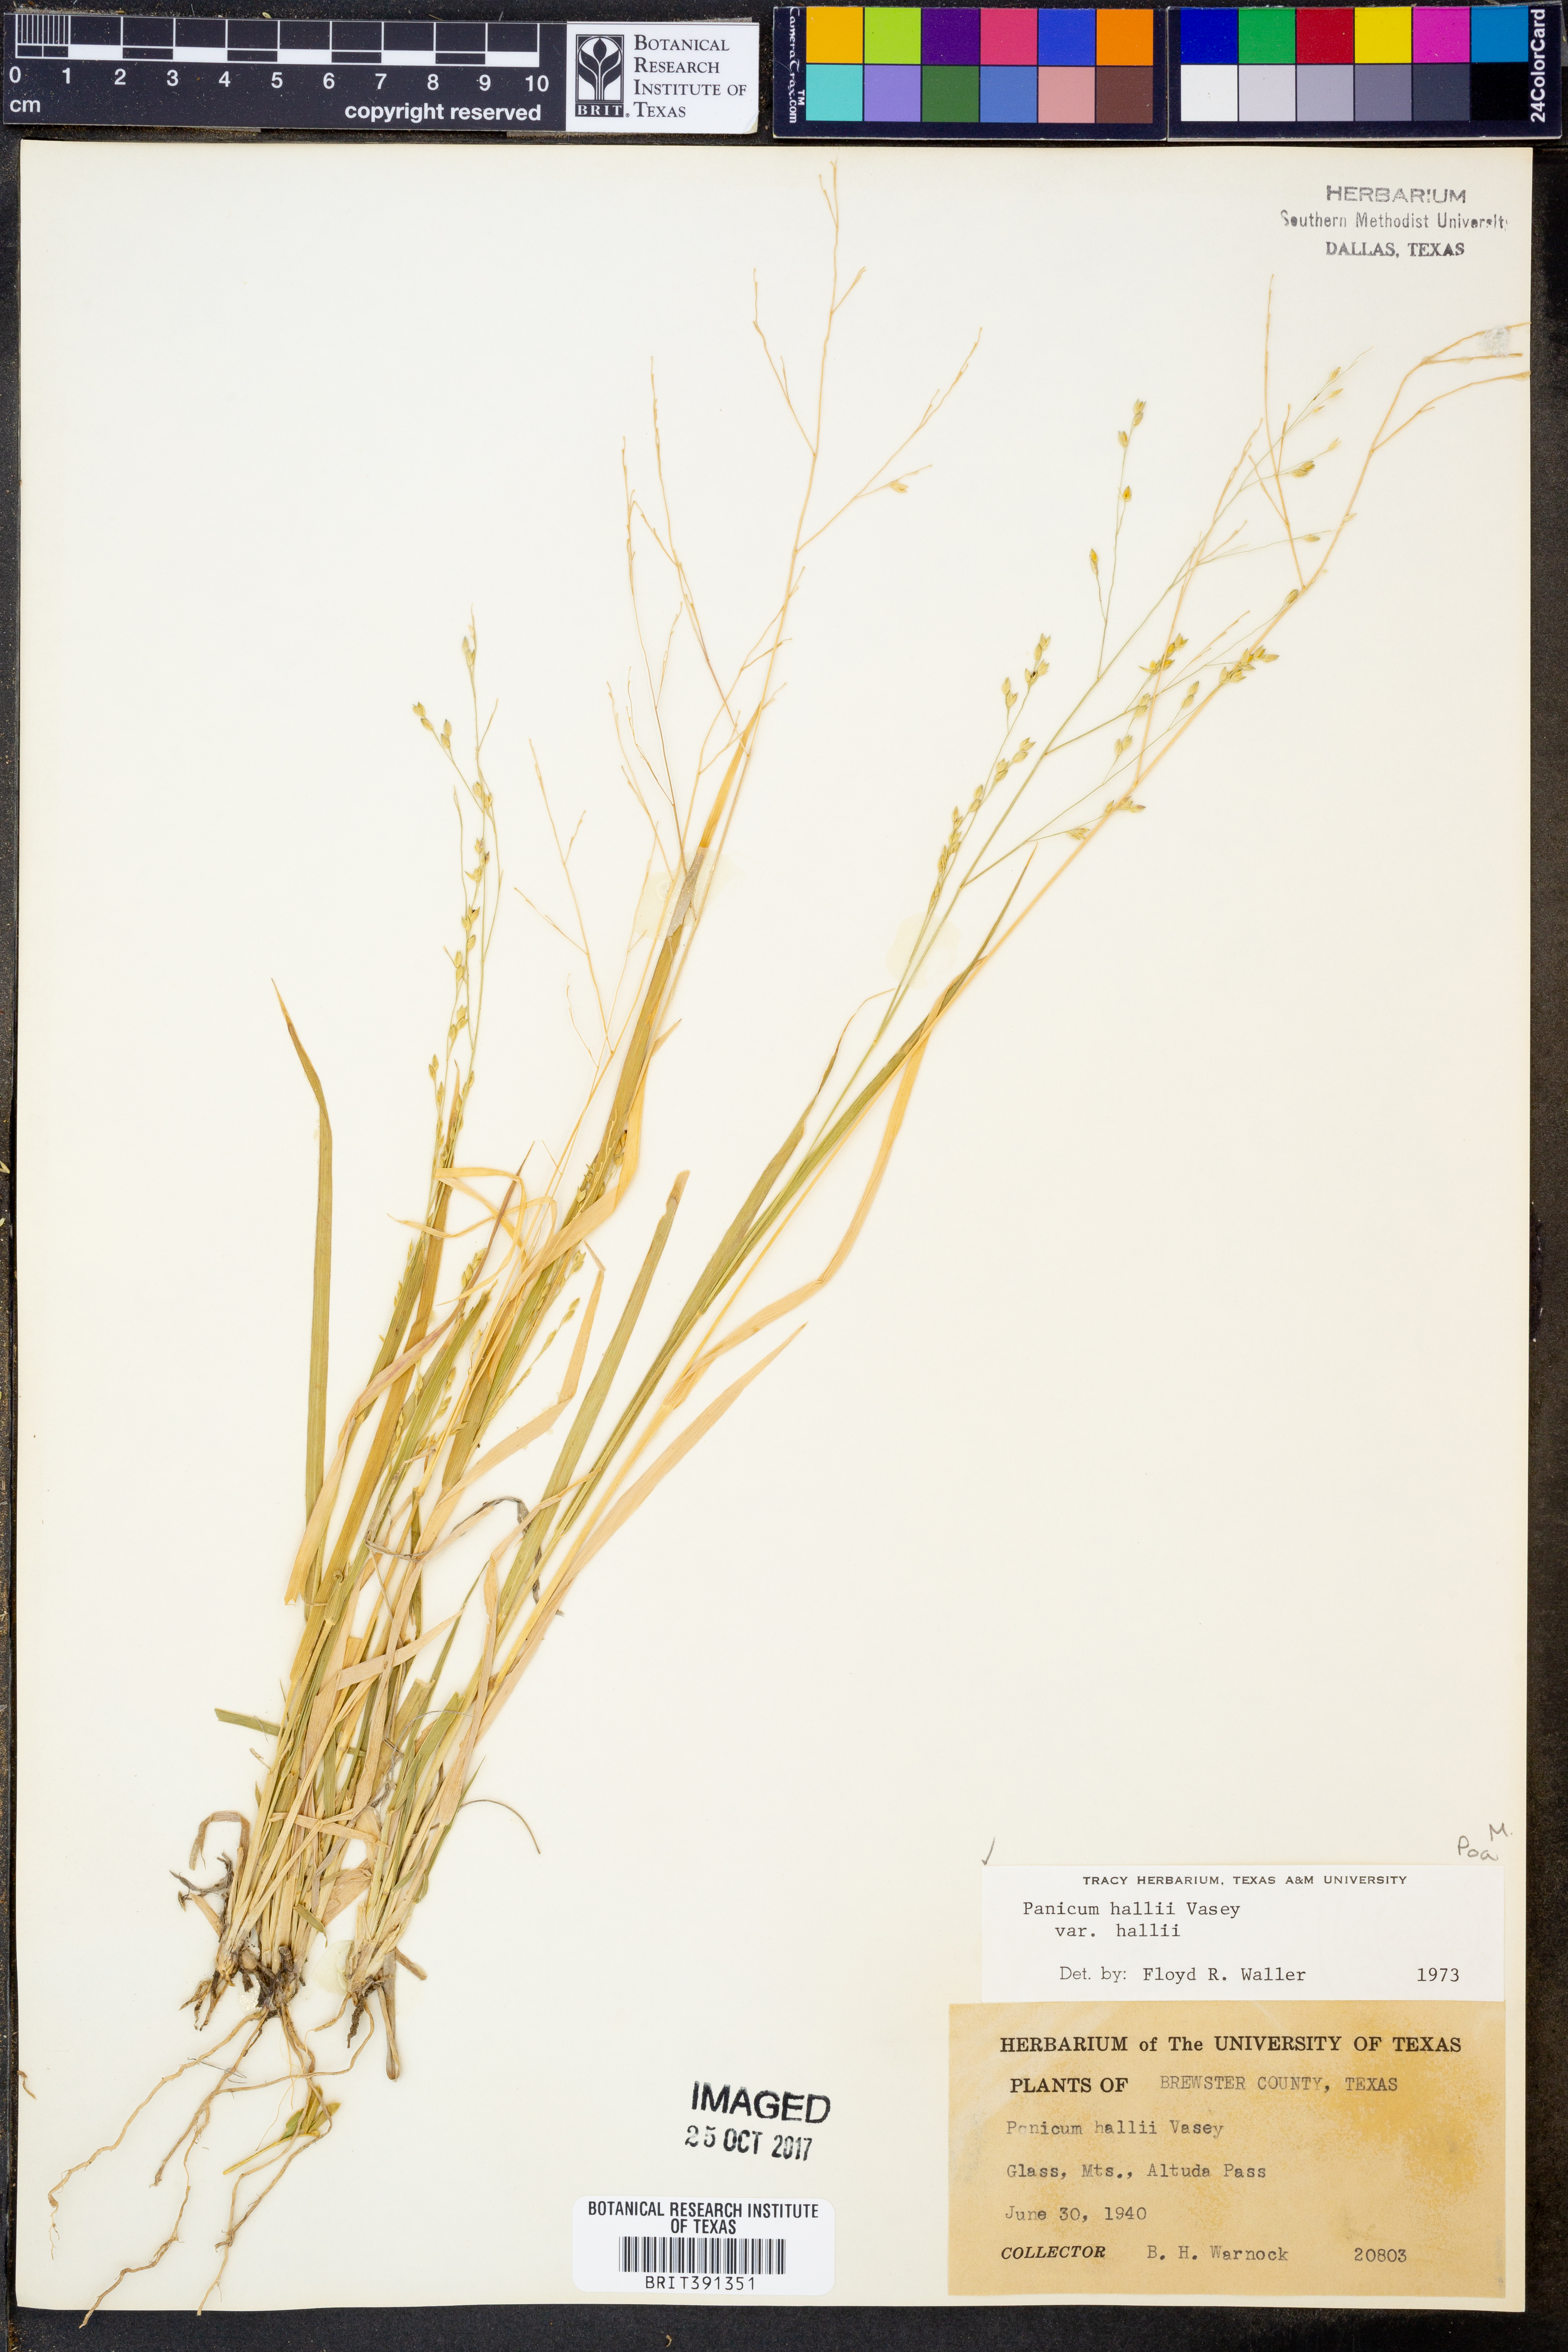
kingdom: Plantae
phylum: Tracheophyta
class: Liliopsida
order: Poales
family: Poaceae
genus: Panicum
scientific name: Panicum hallii
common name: Hall's witchgrass
